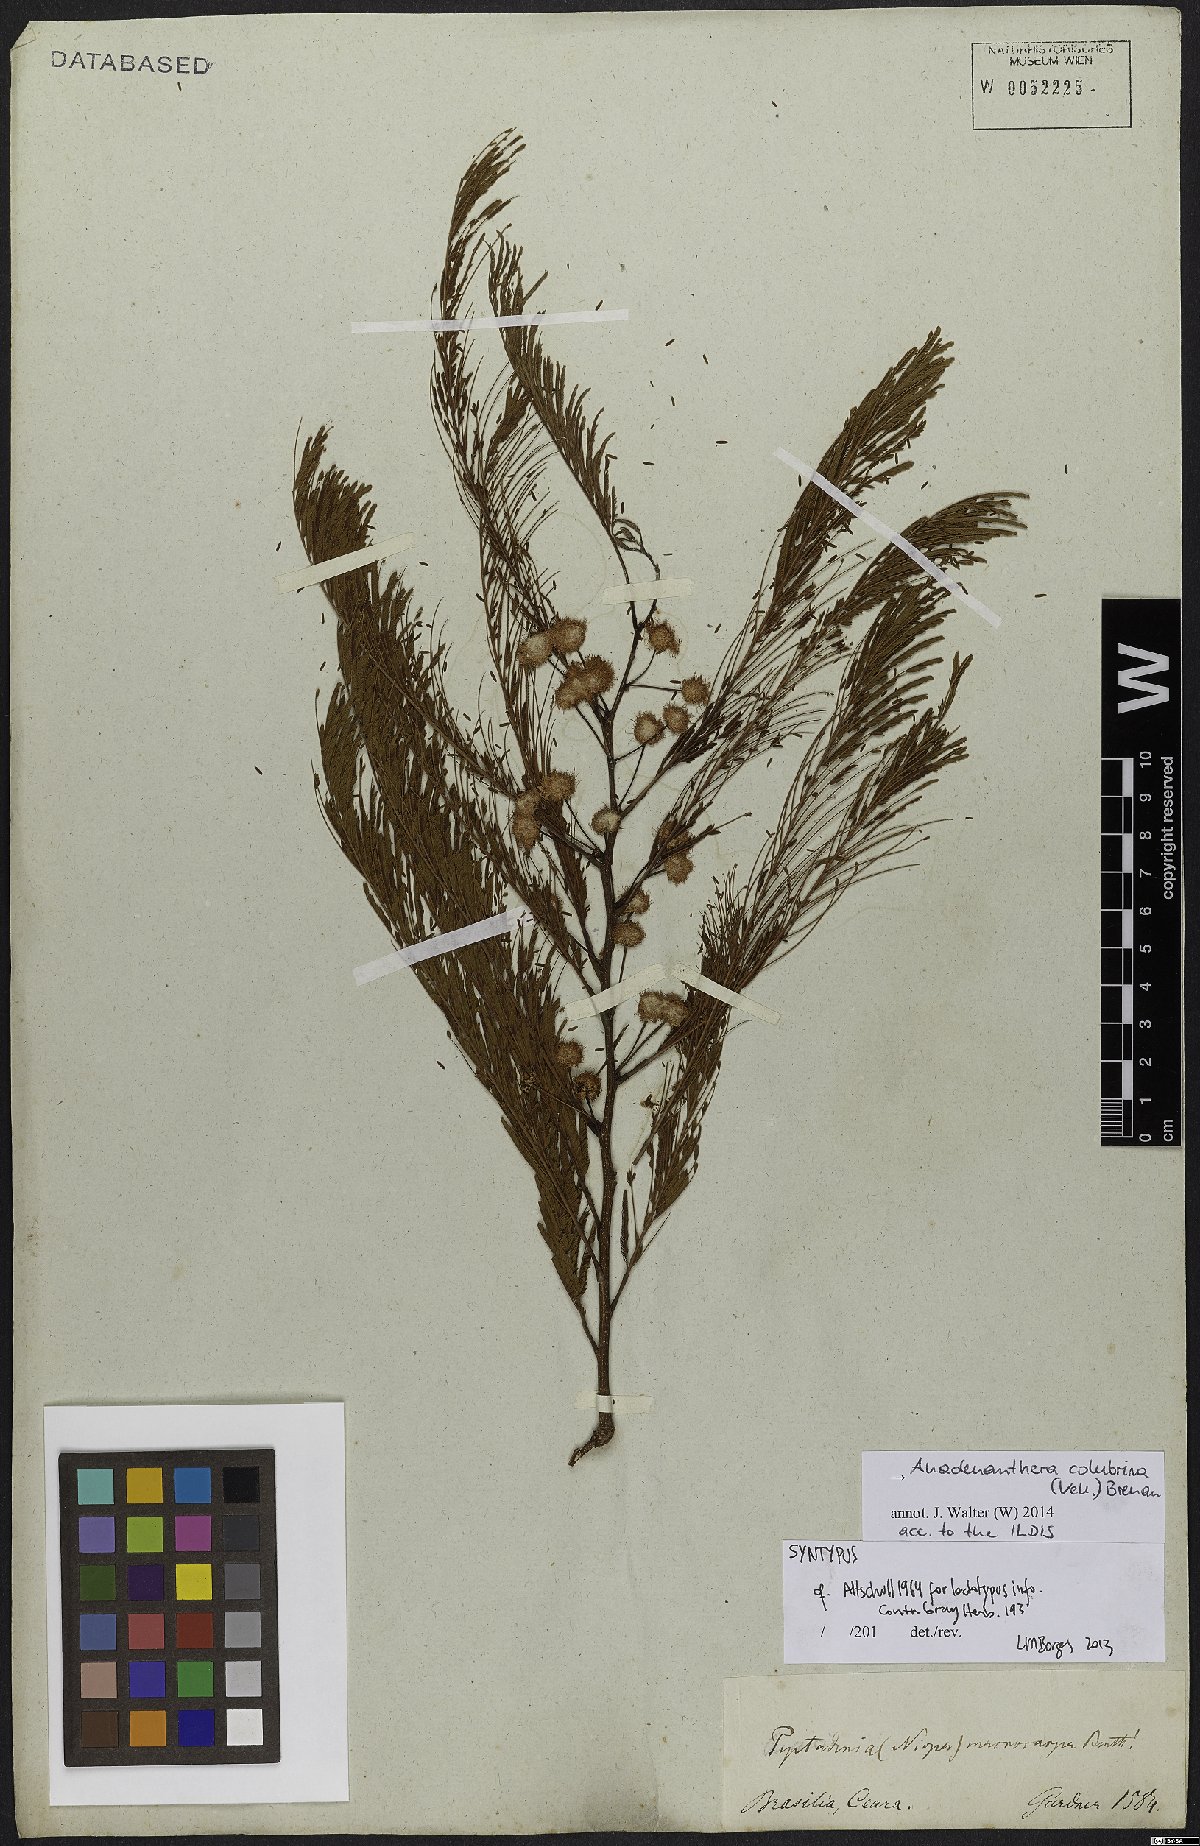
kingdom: Plantae
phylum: Tracheophyta
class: Magnoliopsida
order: Fabales
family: Fabaceae
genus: Anadenanthera
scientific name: Anadenanthera colubrina
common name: Curupay
